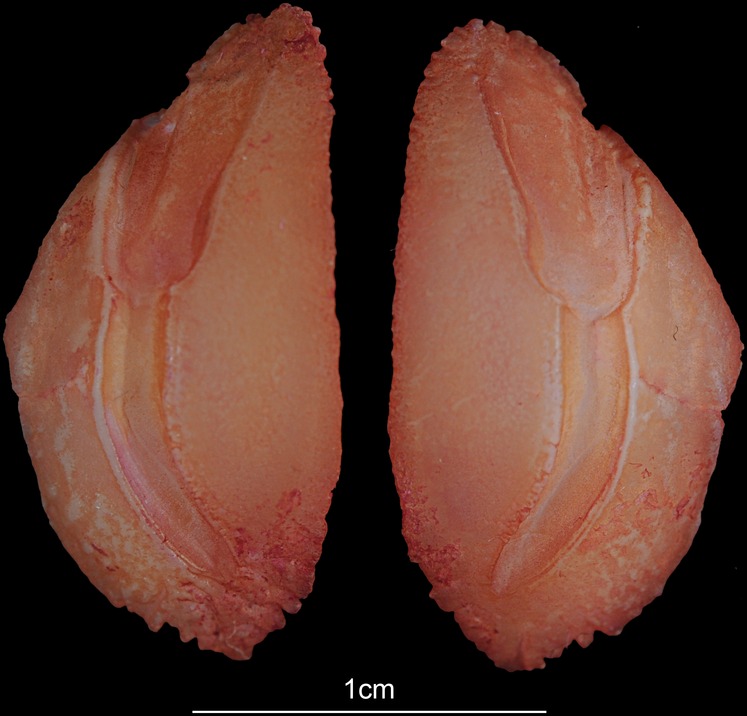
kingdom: Animalia
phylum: Chordata
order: Perciformes
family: Lutjanidae
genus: Lutjanus
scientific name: Lutjanus johnii
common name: John's snapper
